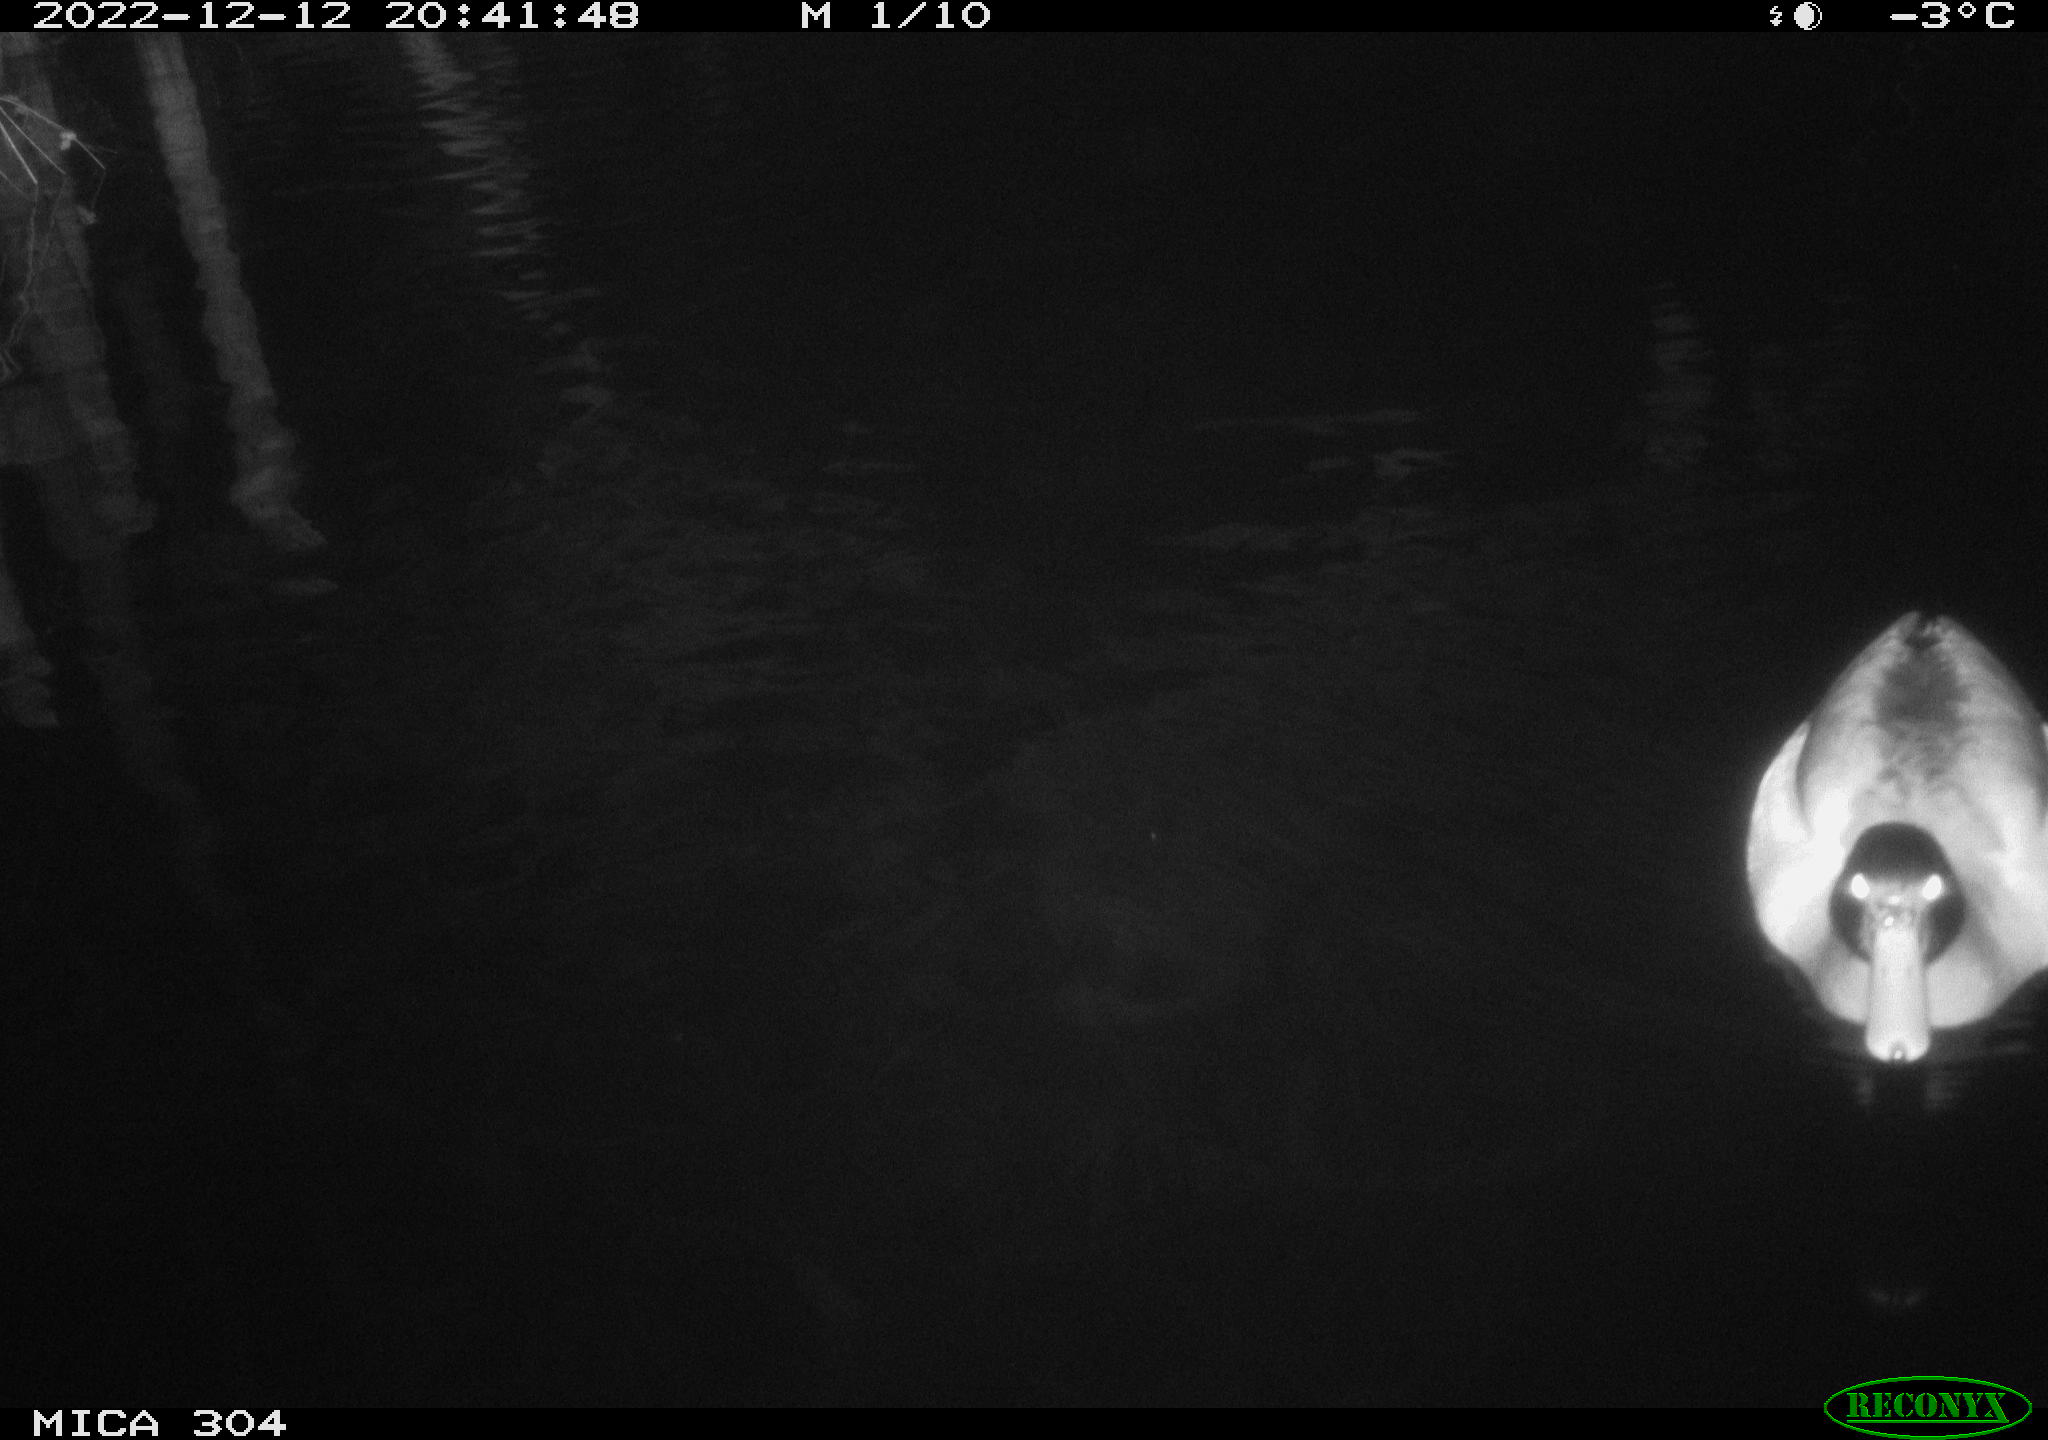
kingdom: Animalia
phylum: Chordata
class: Aves
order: Anseriformes
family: Anatidae
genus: Anas
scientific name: Anas
